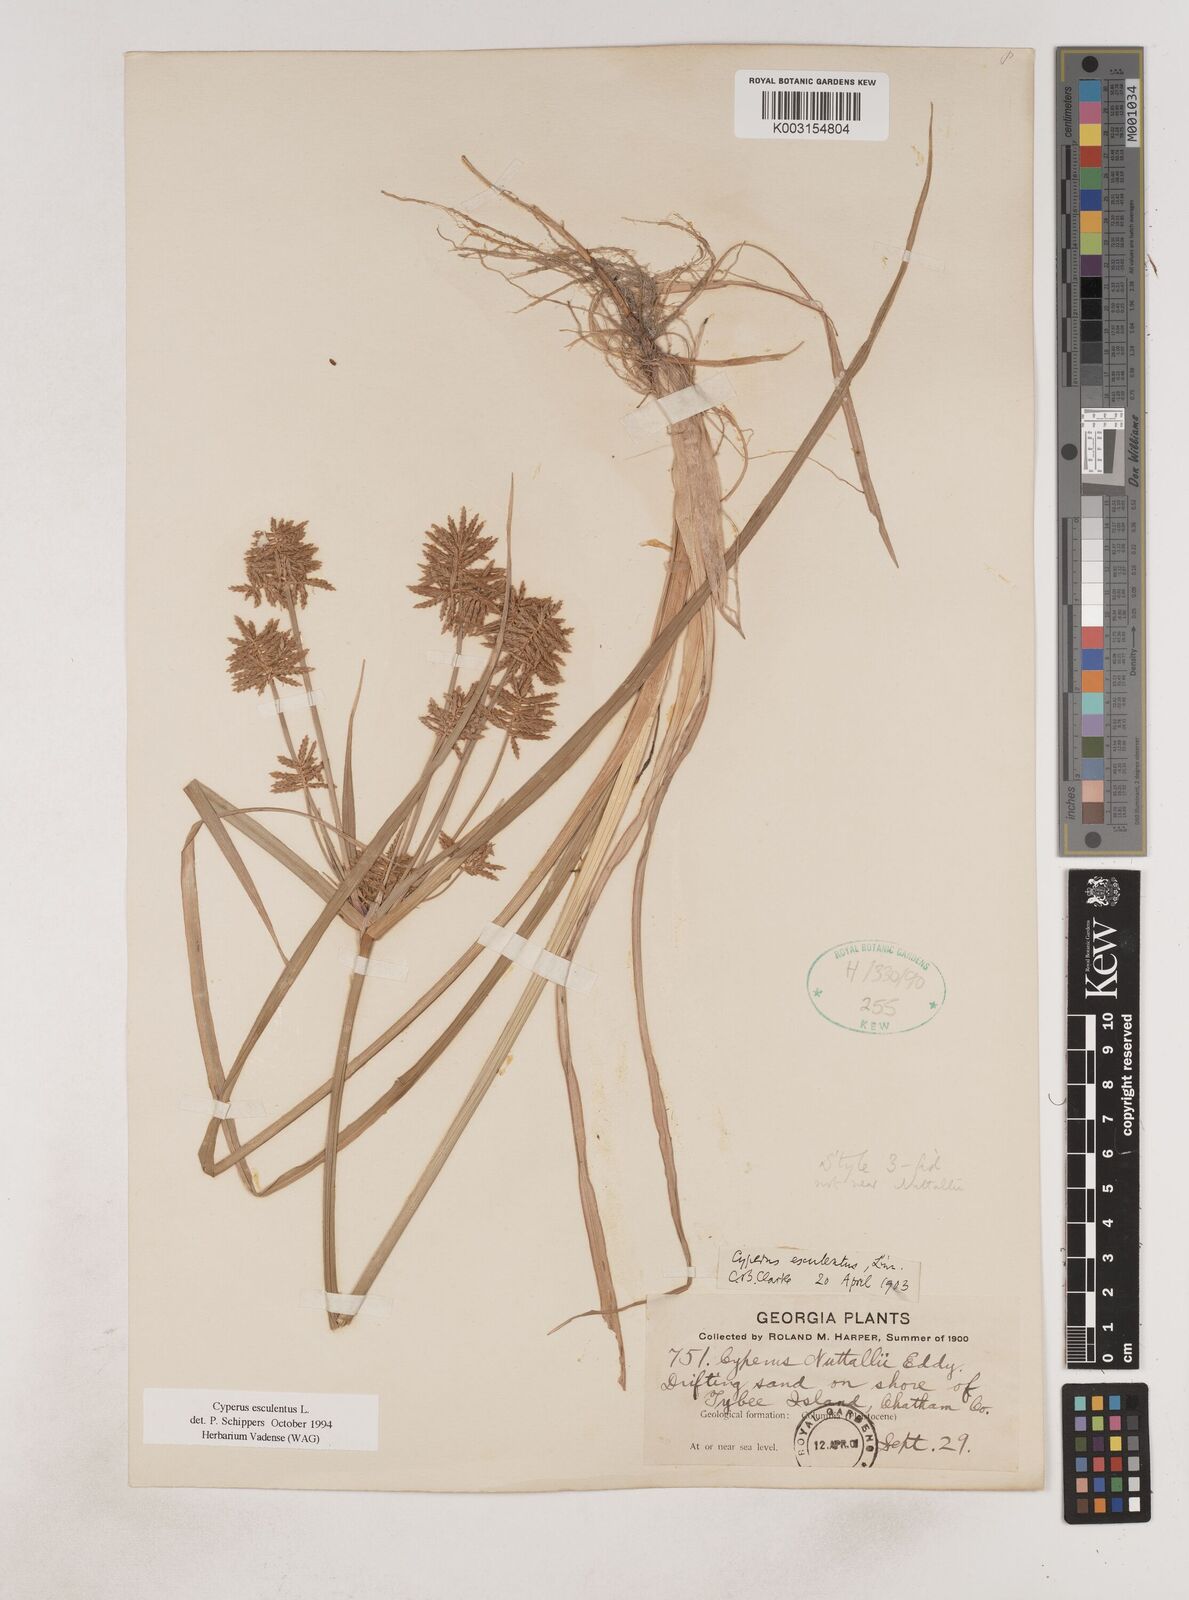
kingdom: Plantae
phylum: Tracheophyta
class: Liliopsida
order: Poales
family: Cyperaceae
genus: Cyperus
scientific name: Cyperus esculentus
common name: Yellow nutsedge
